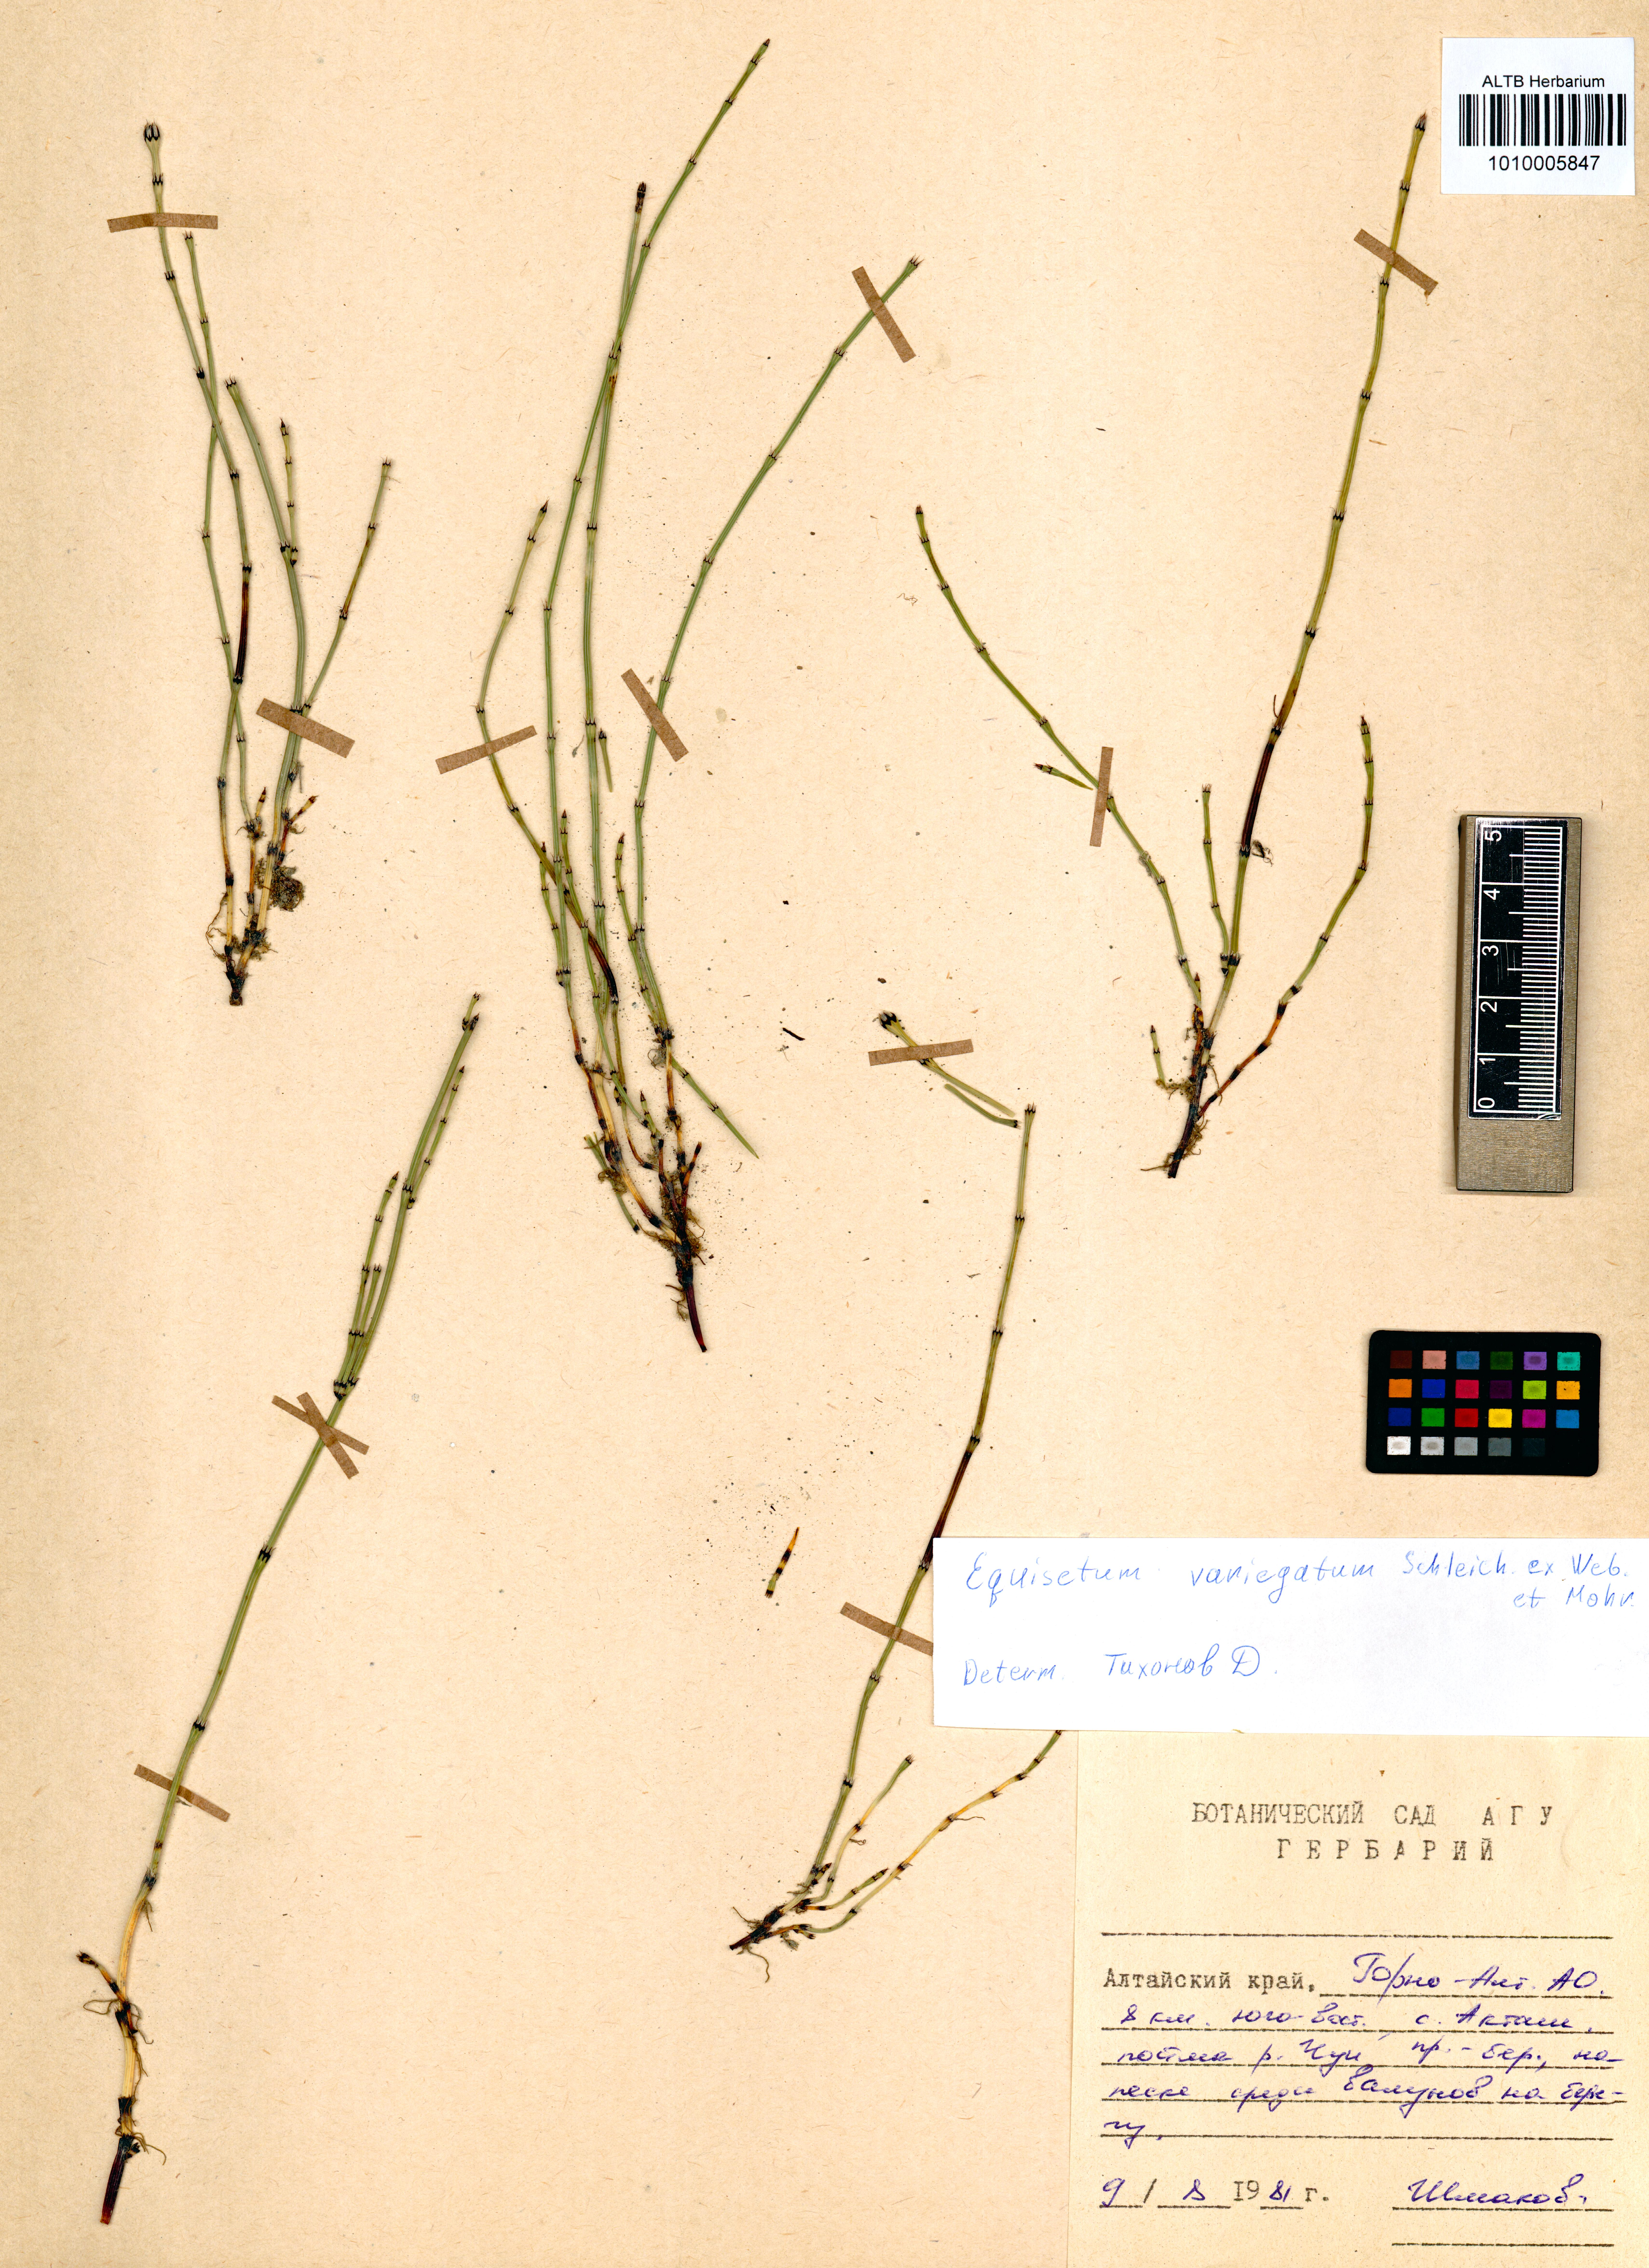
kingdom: Plantae
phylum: Tracheophyta
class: Polypodiopsida
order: Equisetales
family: Equisetaceae
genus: Equisetum
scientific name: Equisetum variegatum
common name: Variegated horsetail
